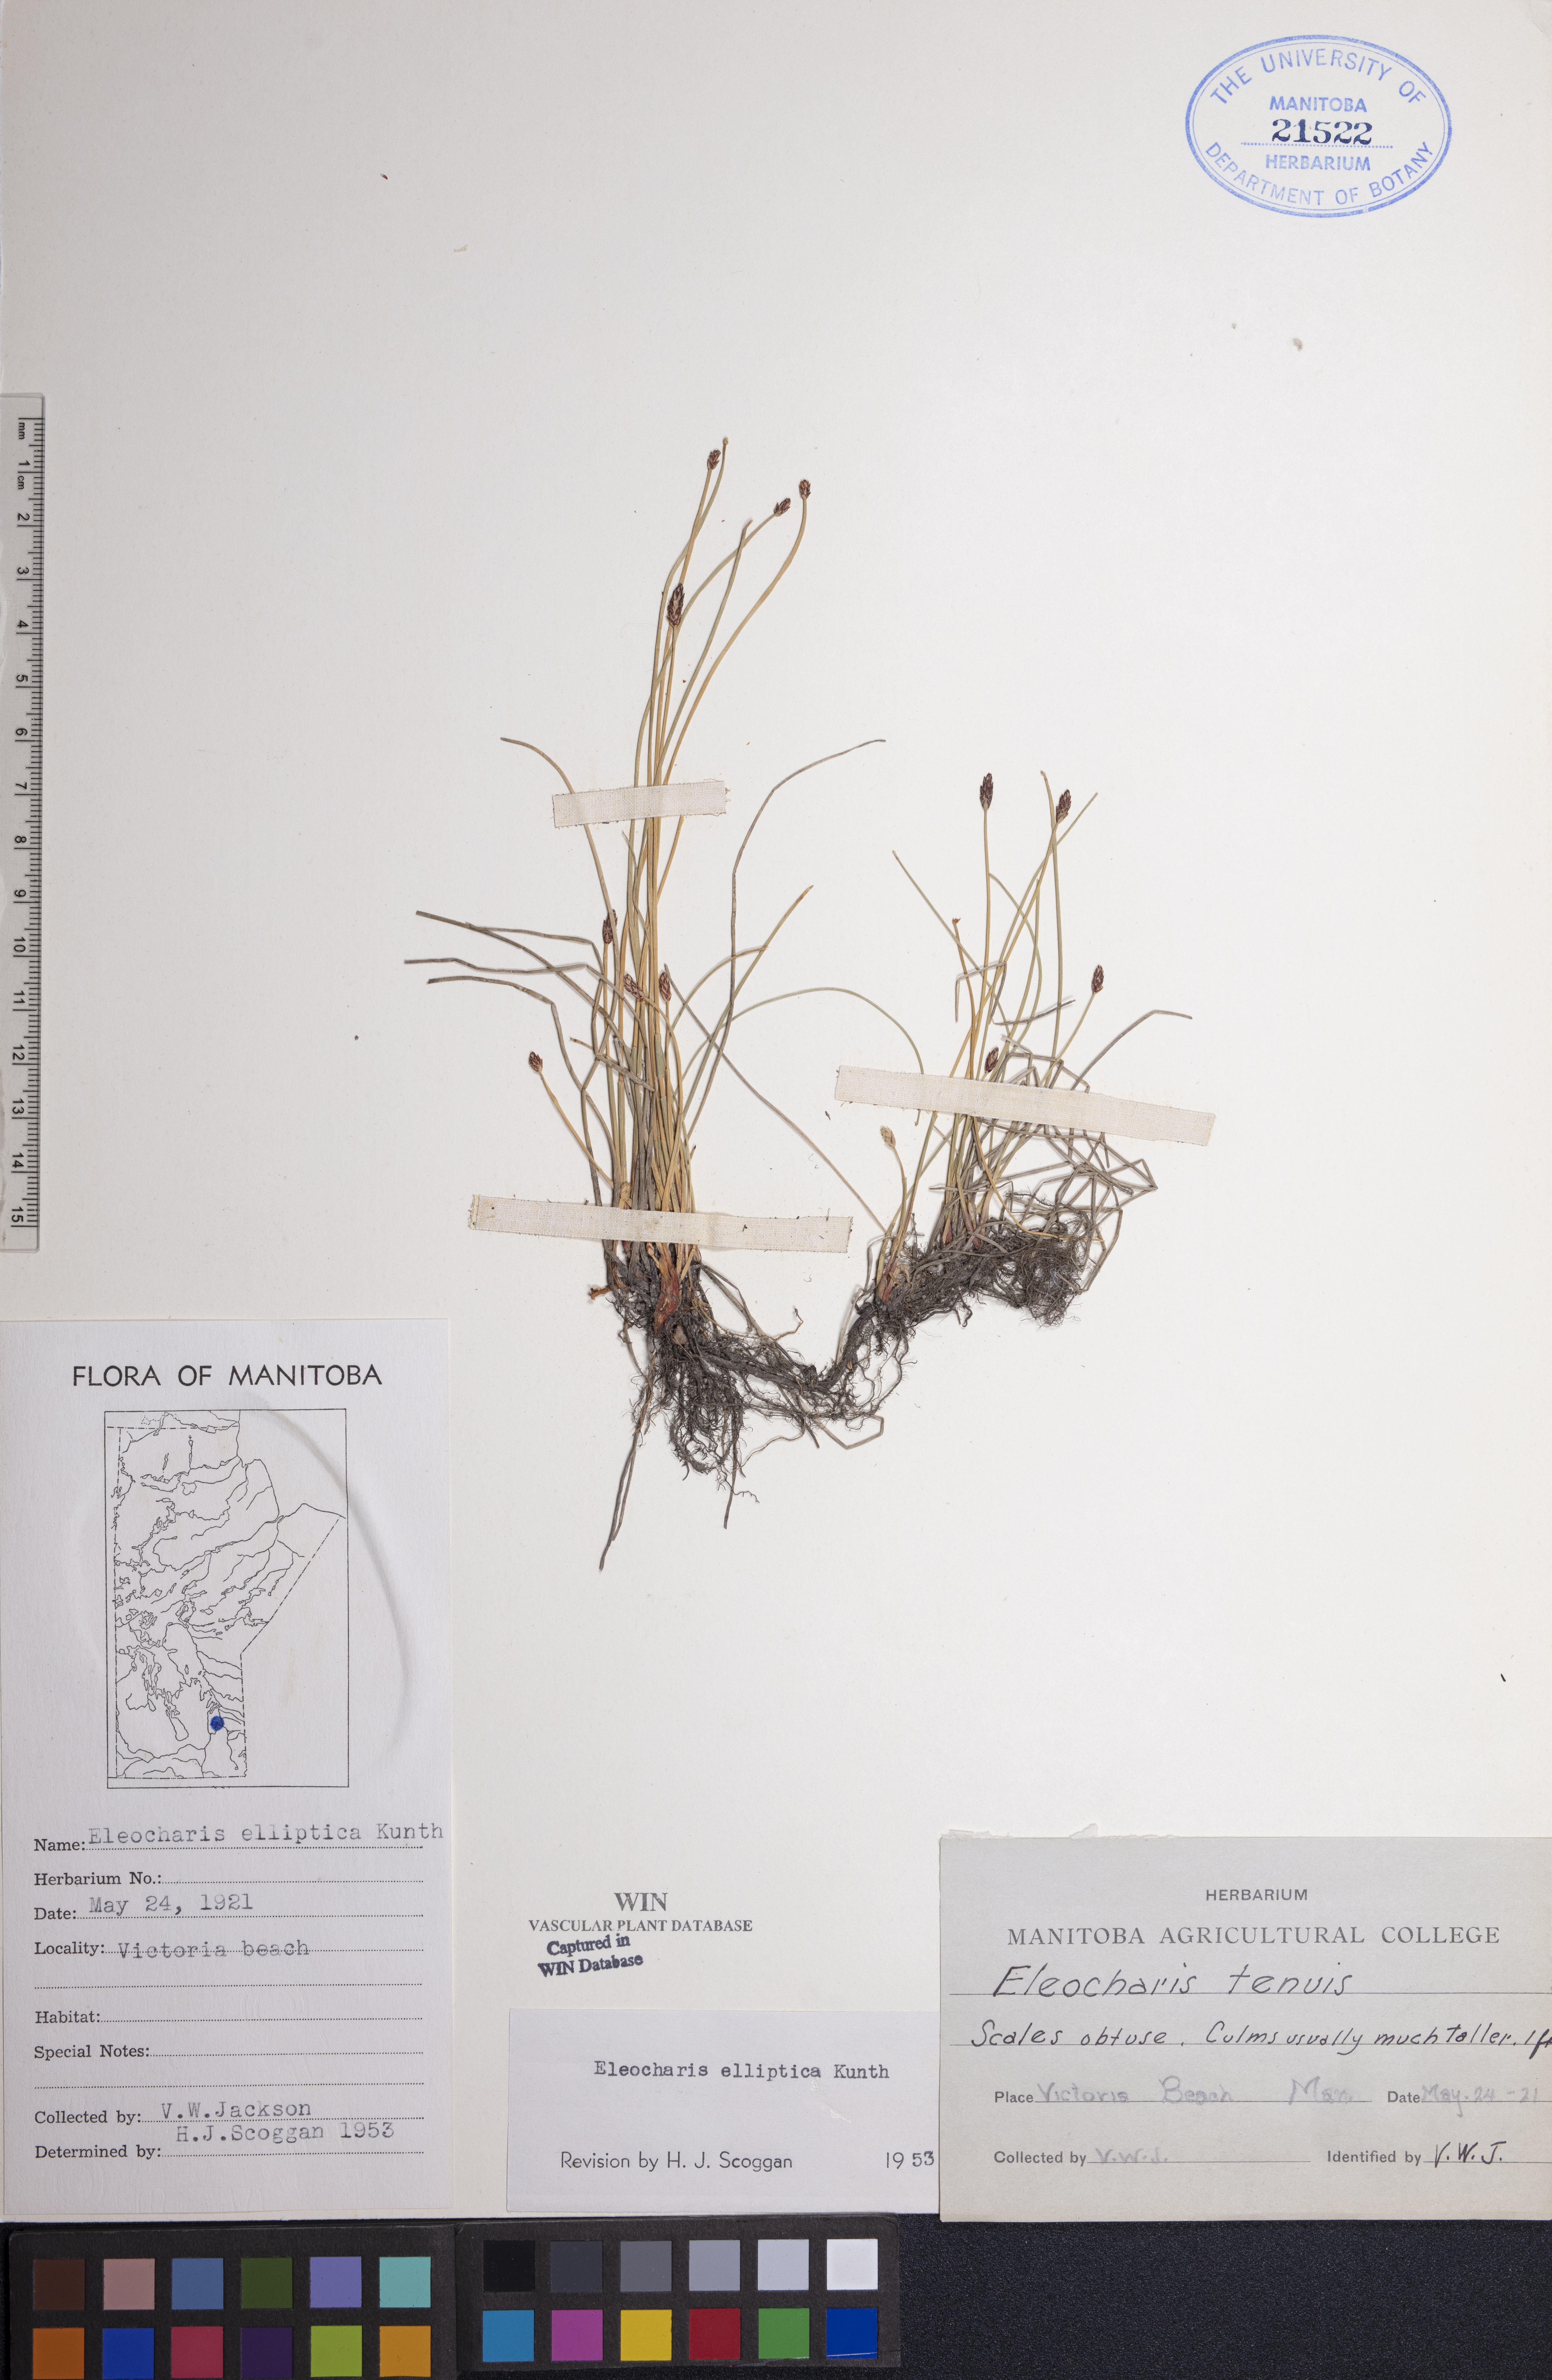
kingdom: Plantae
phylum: Tracheophyta
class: Liliopsida
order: Poales
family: Cyperaceae
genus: Eleocharis
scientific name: Eleocharis elliptica
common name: Capitate spikerush
